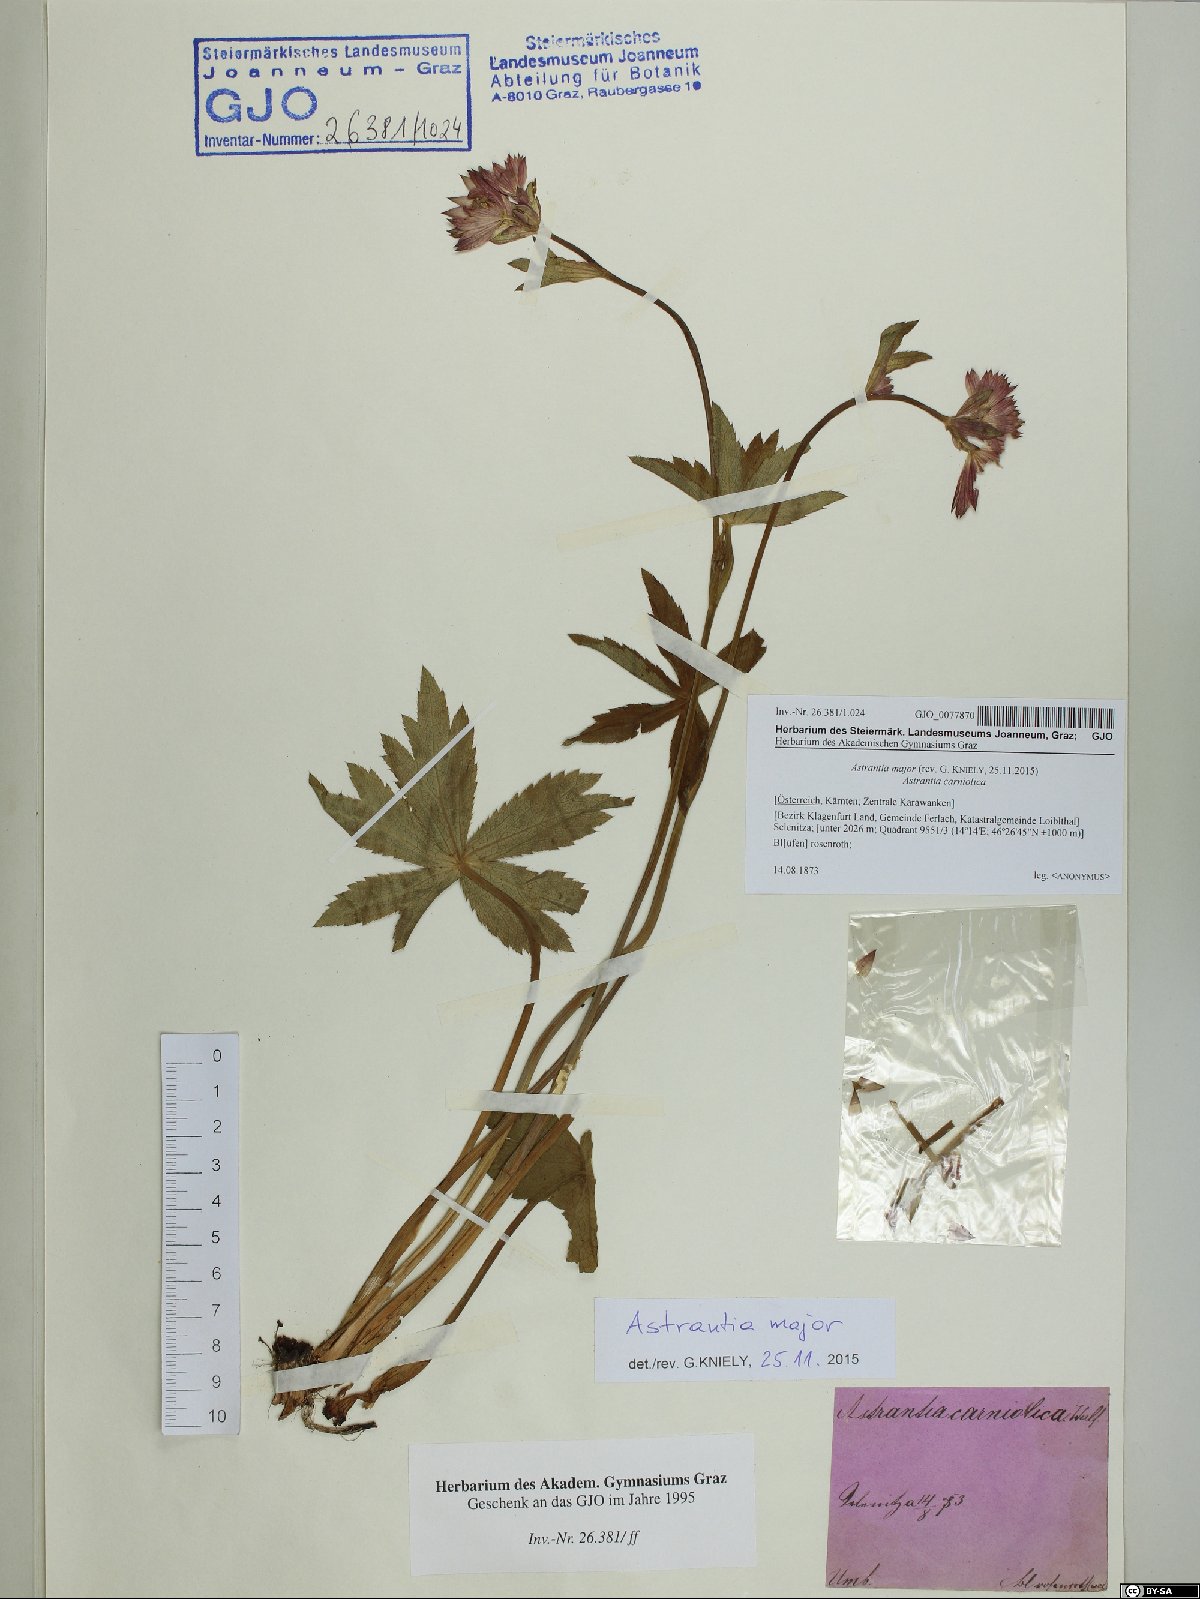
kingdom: Plantae
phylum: Tracheophyta
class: Magnoliopsida
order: Apiales
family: Apiaceae
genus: Astrantia
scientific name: Astrantia major
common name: Greater masterwort
